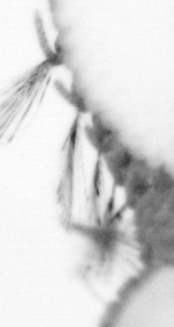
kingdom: Animalia
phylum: Annelida
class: Polychaeta
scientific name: Polychaeta
